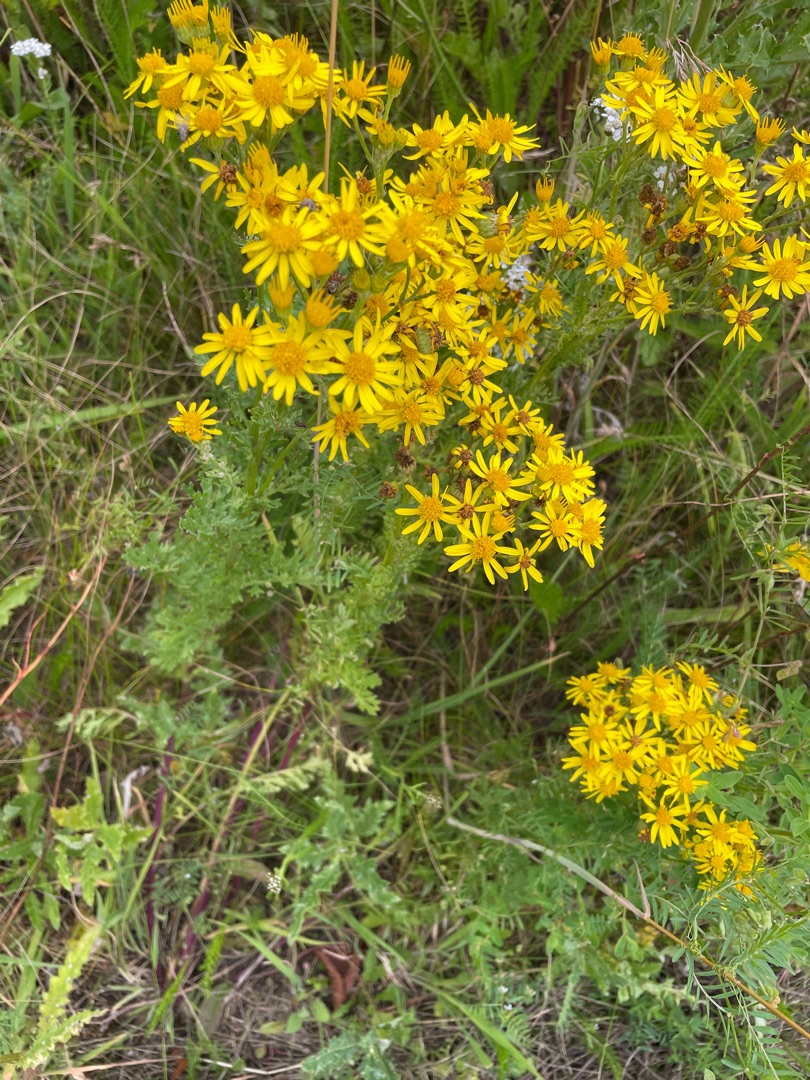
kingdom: Plantae
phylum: Tracheophyta
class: Magnoliopsida
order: Asterales
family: Asteraceae
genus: Jacobaea
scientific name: Jacobaea vulgaris
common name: Eng-brandbæger
